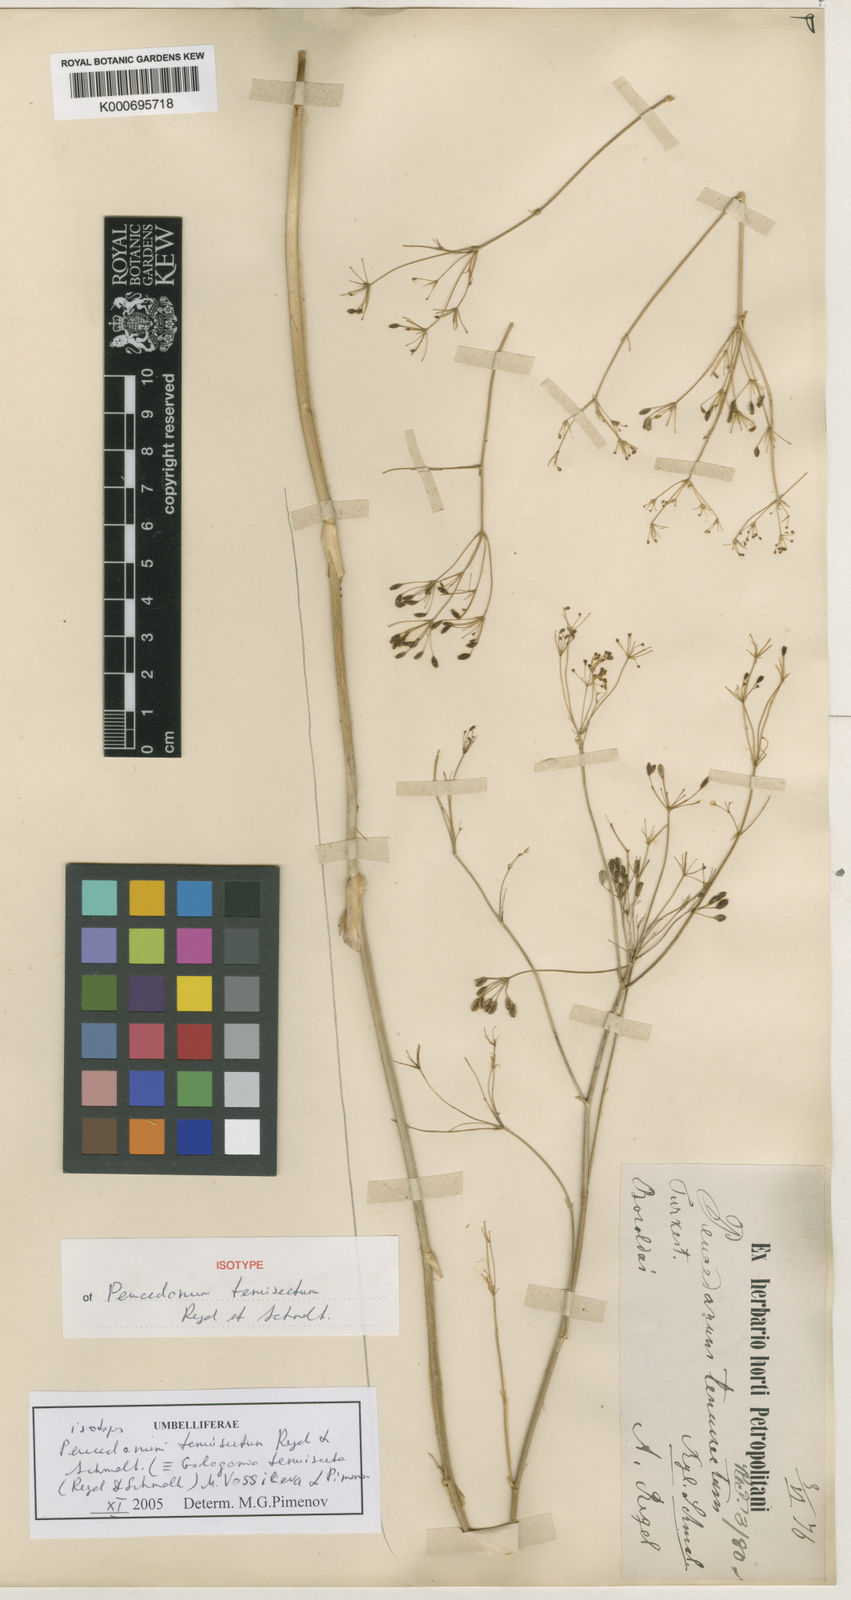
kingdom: Plantae
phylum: Tracheophyta
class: Magnoliopsida
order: Apiales
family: Apiaceae
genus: Galagania
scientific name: Galagania tenuisecta
